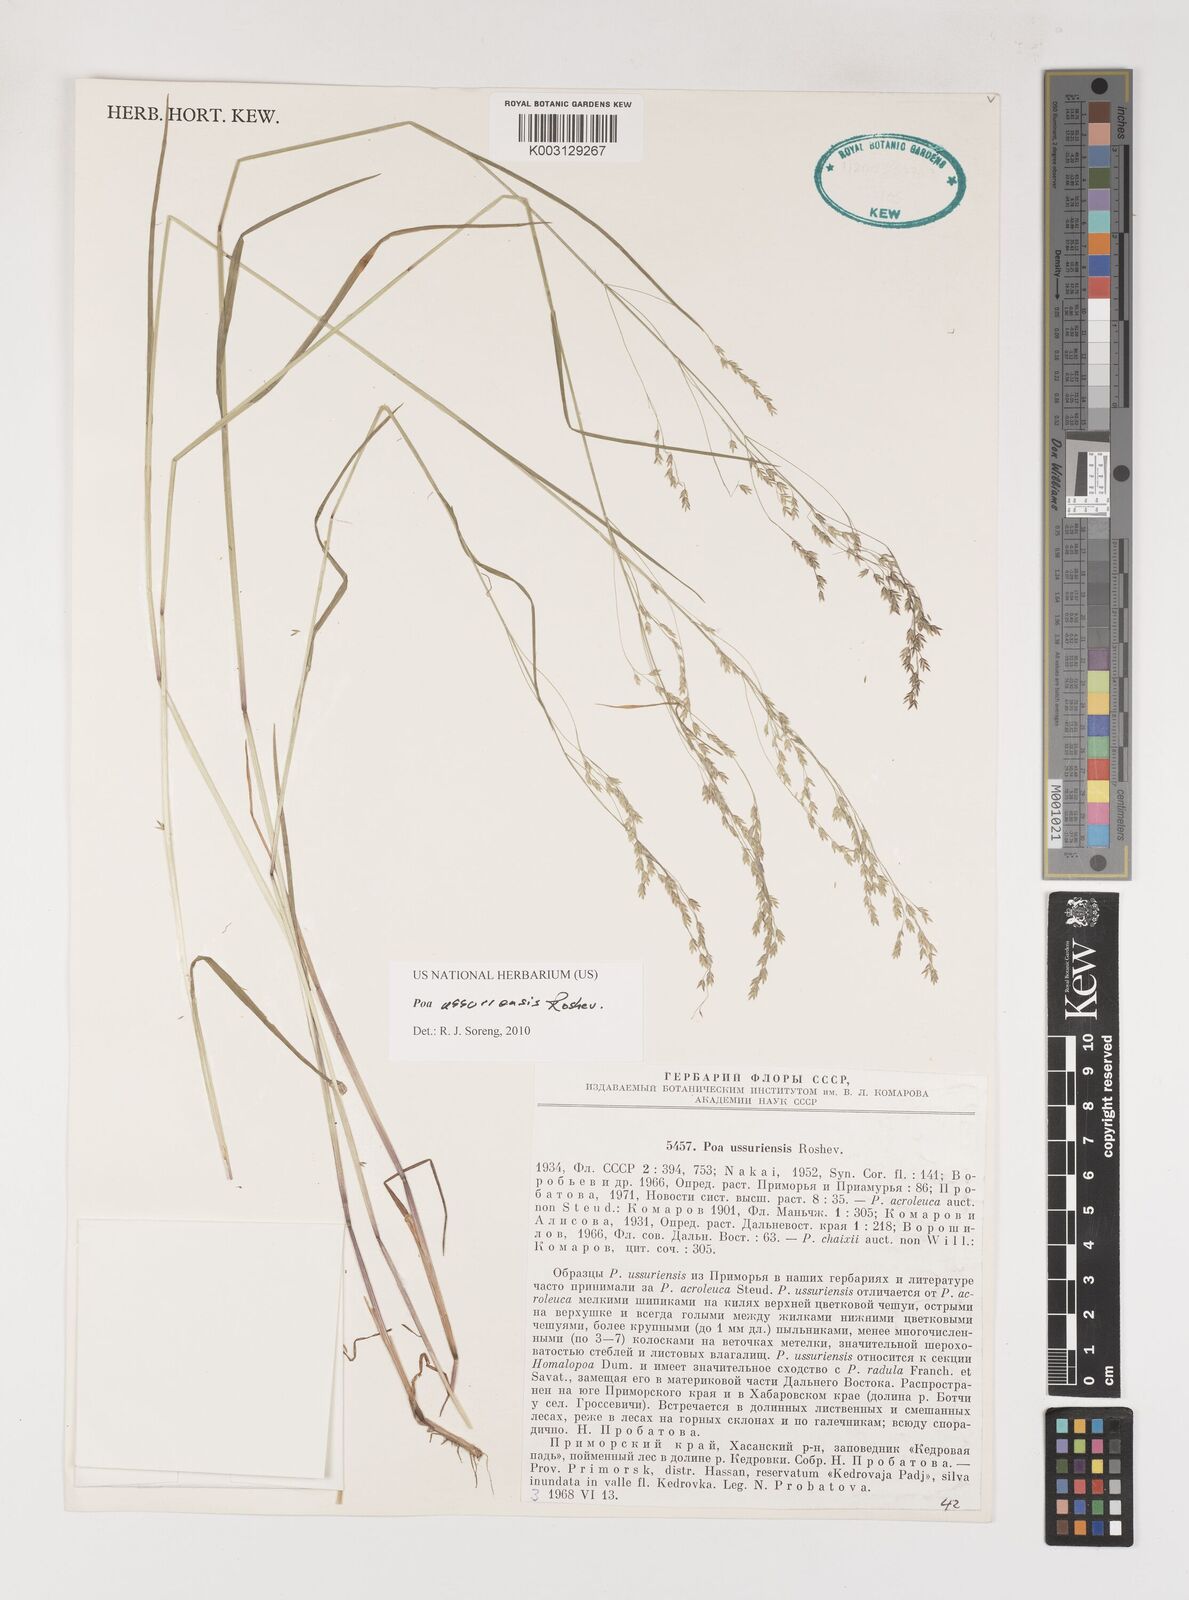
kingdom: Plantae
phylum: Tracheophyta
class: Liliopsida
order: Poales
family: Poaceae
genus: Poa
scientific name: Poa ussuriensis
